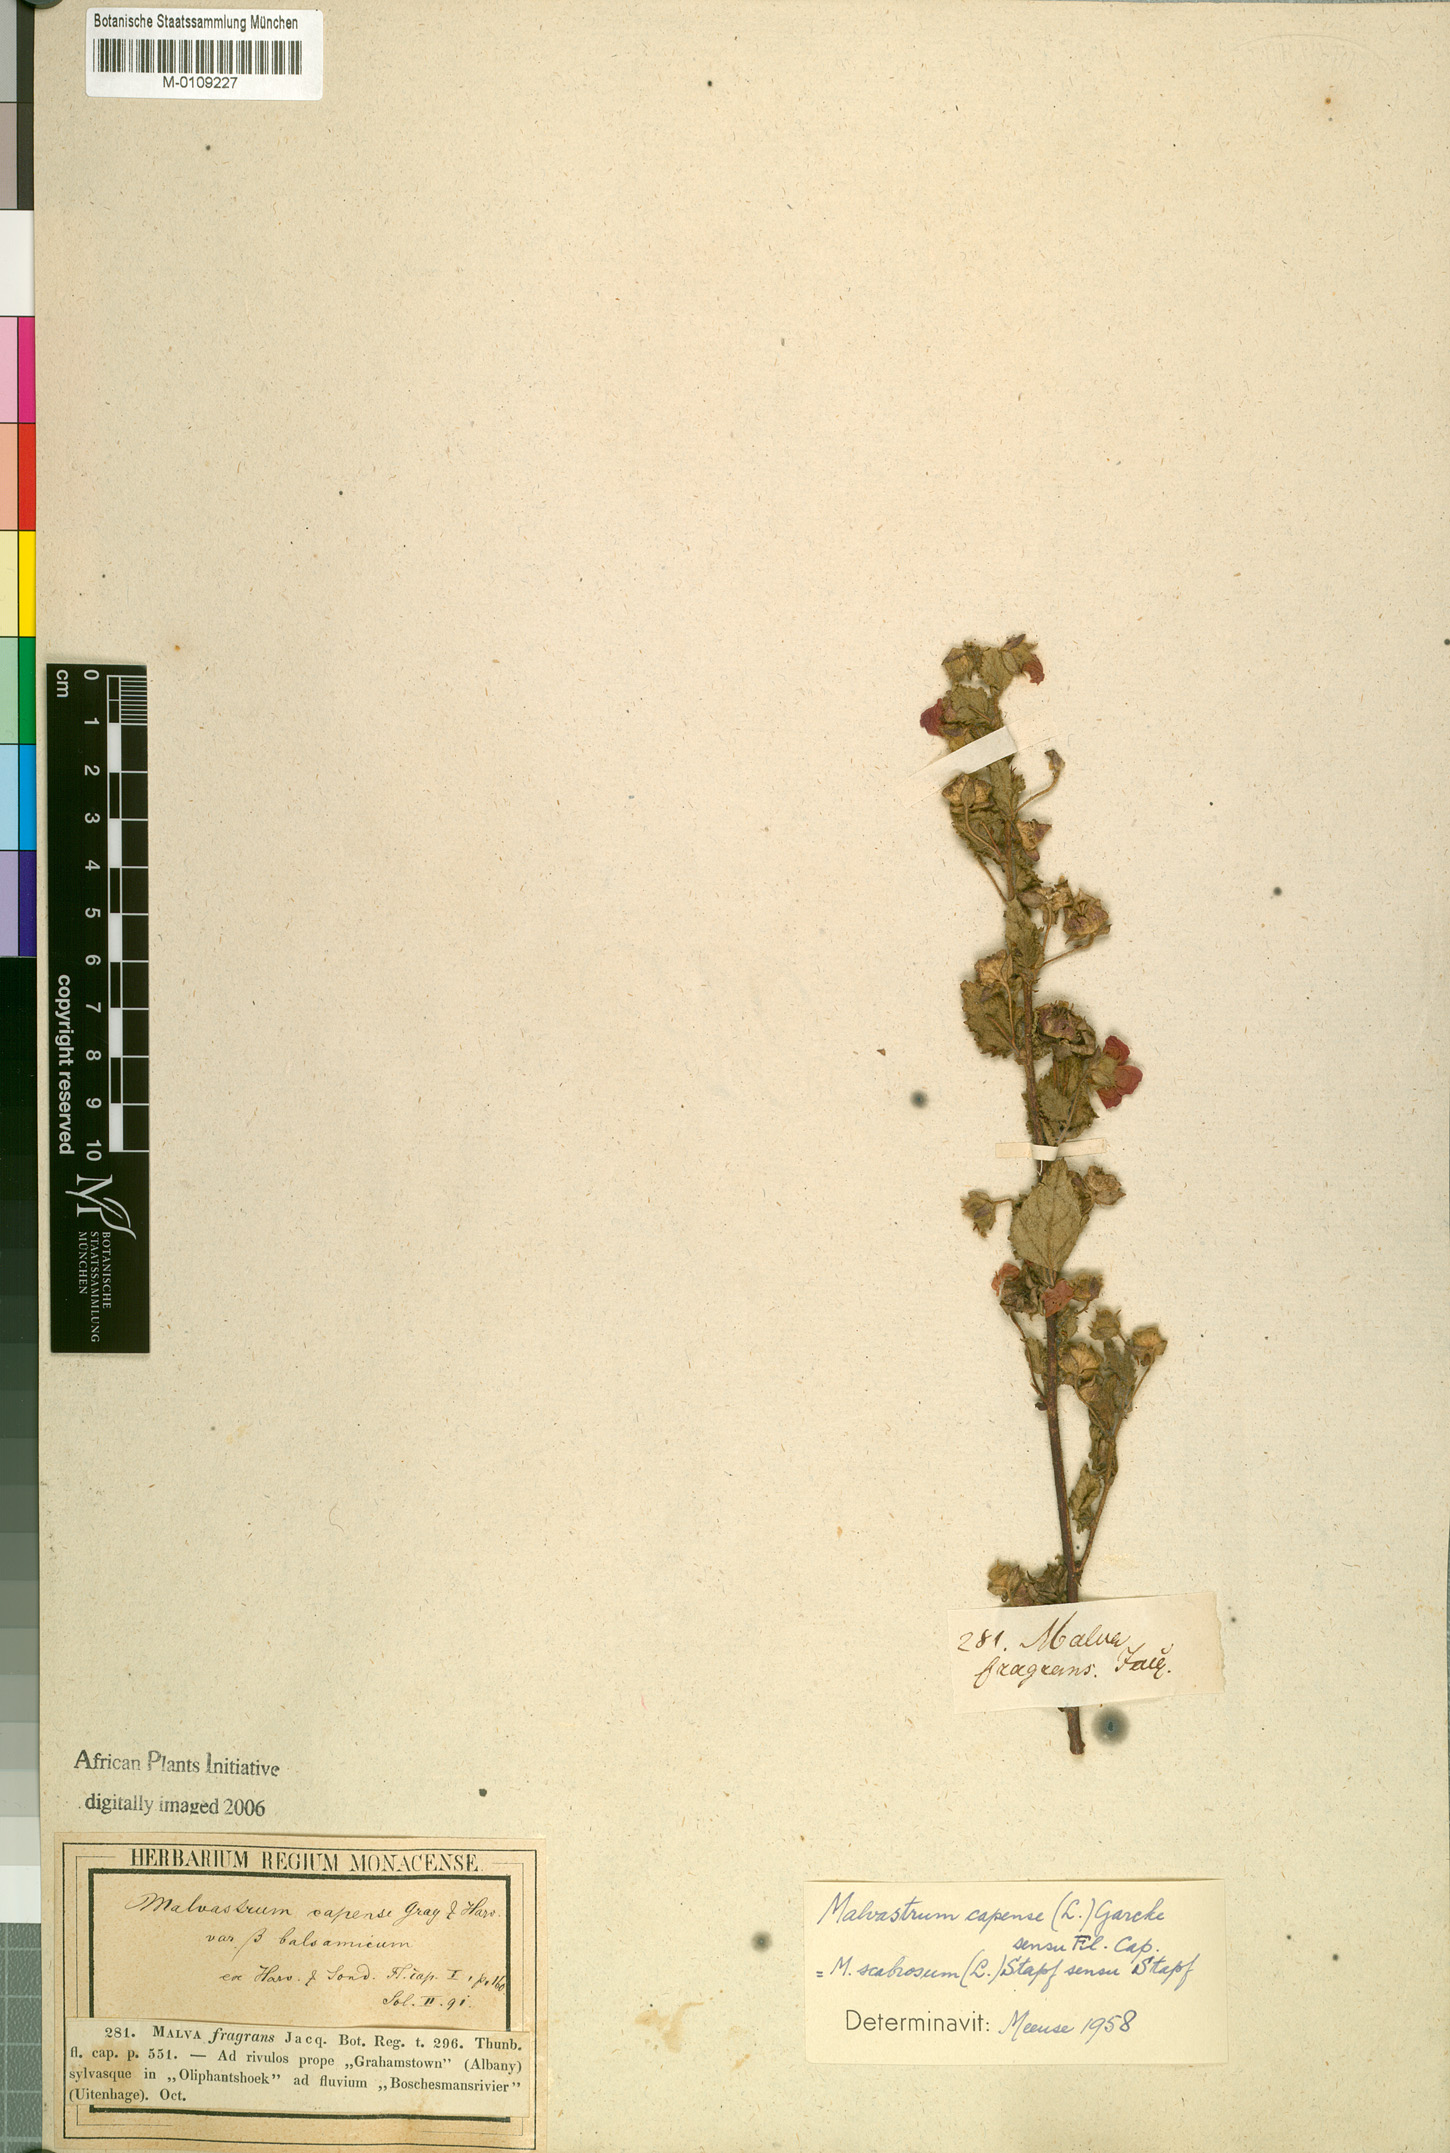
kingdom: Plantae
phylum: Tracheophyta
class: Magnoliopsida
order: Malvales
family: Malvaceae
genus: Anisodontea
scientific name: Anisodontea scabrosa
